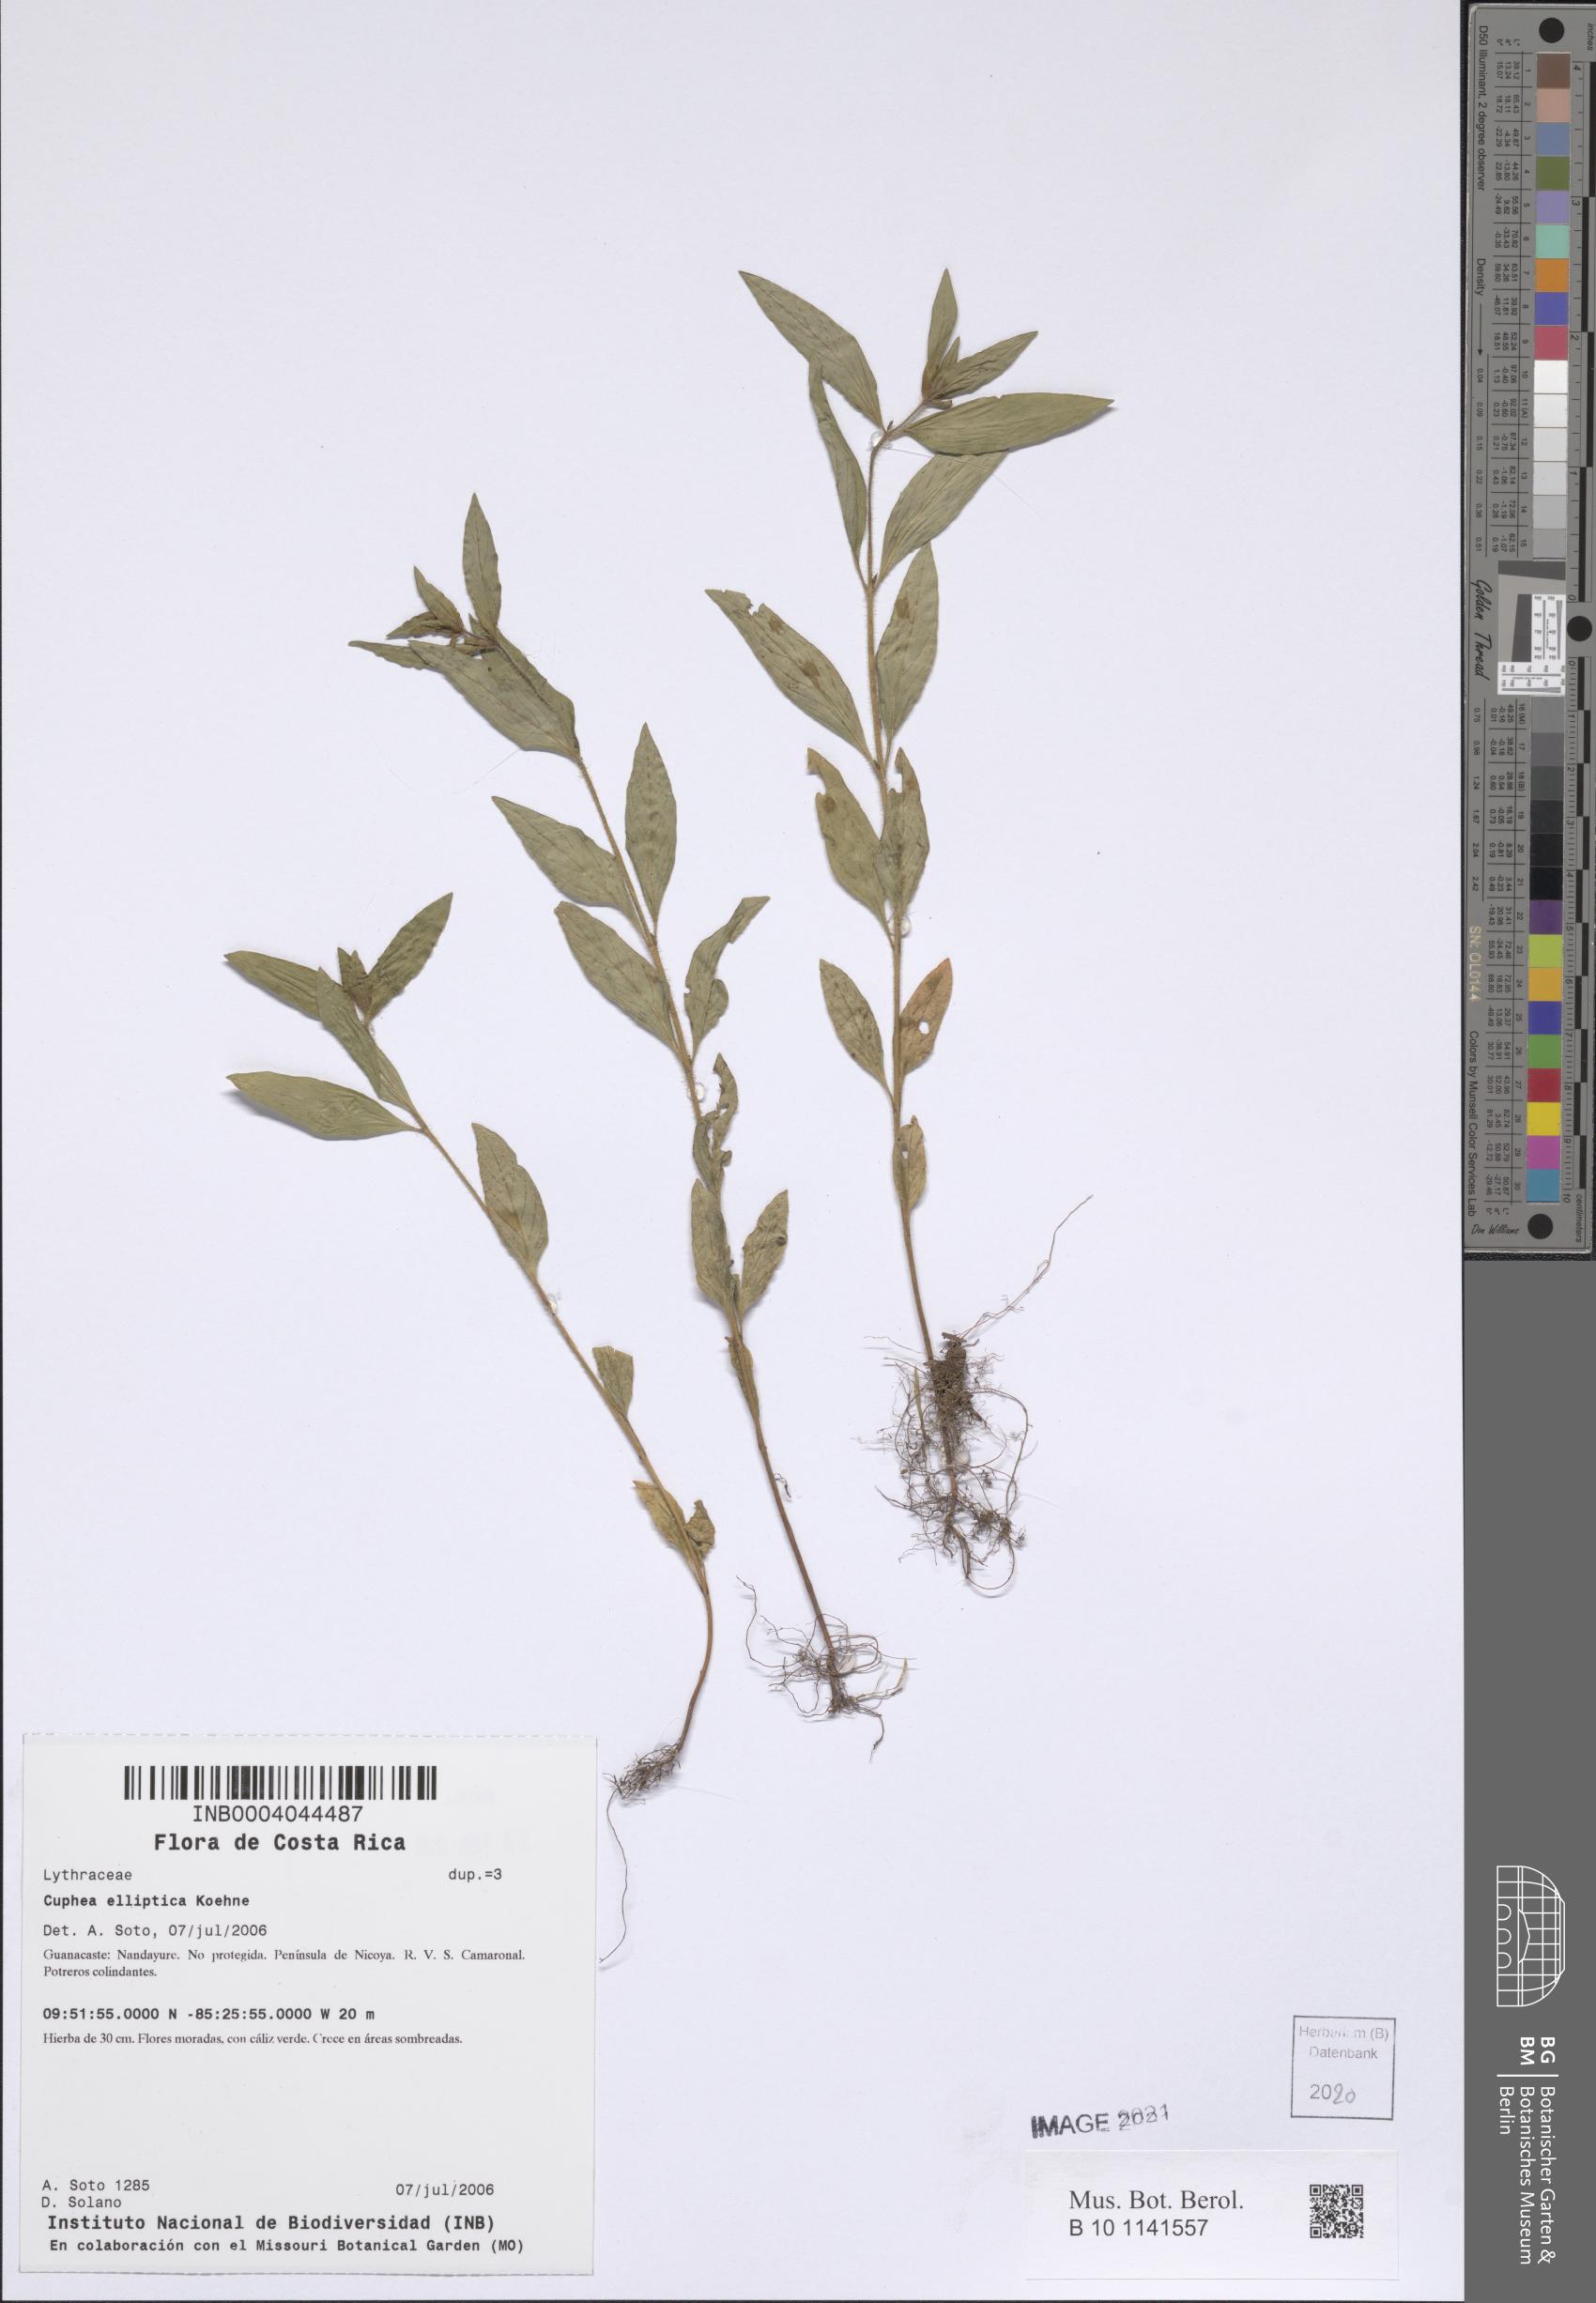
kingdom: Plantae
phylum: Tracheophyta
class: Magnoliopsida
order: Myrtales
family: Lythraceae
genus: Cuphea
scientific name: Cuphea elliptica
